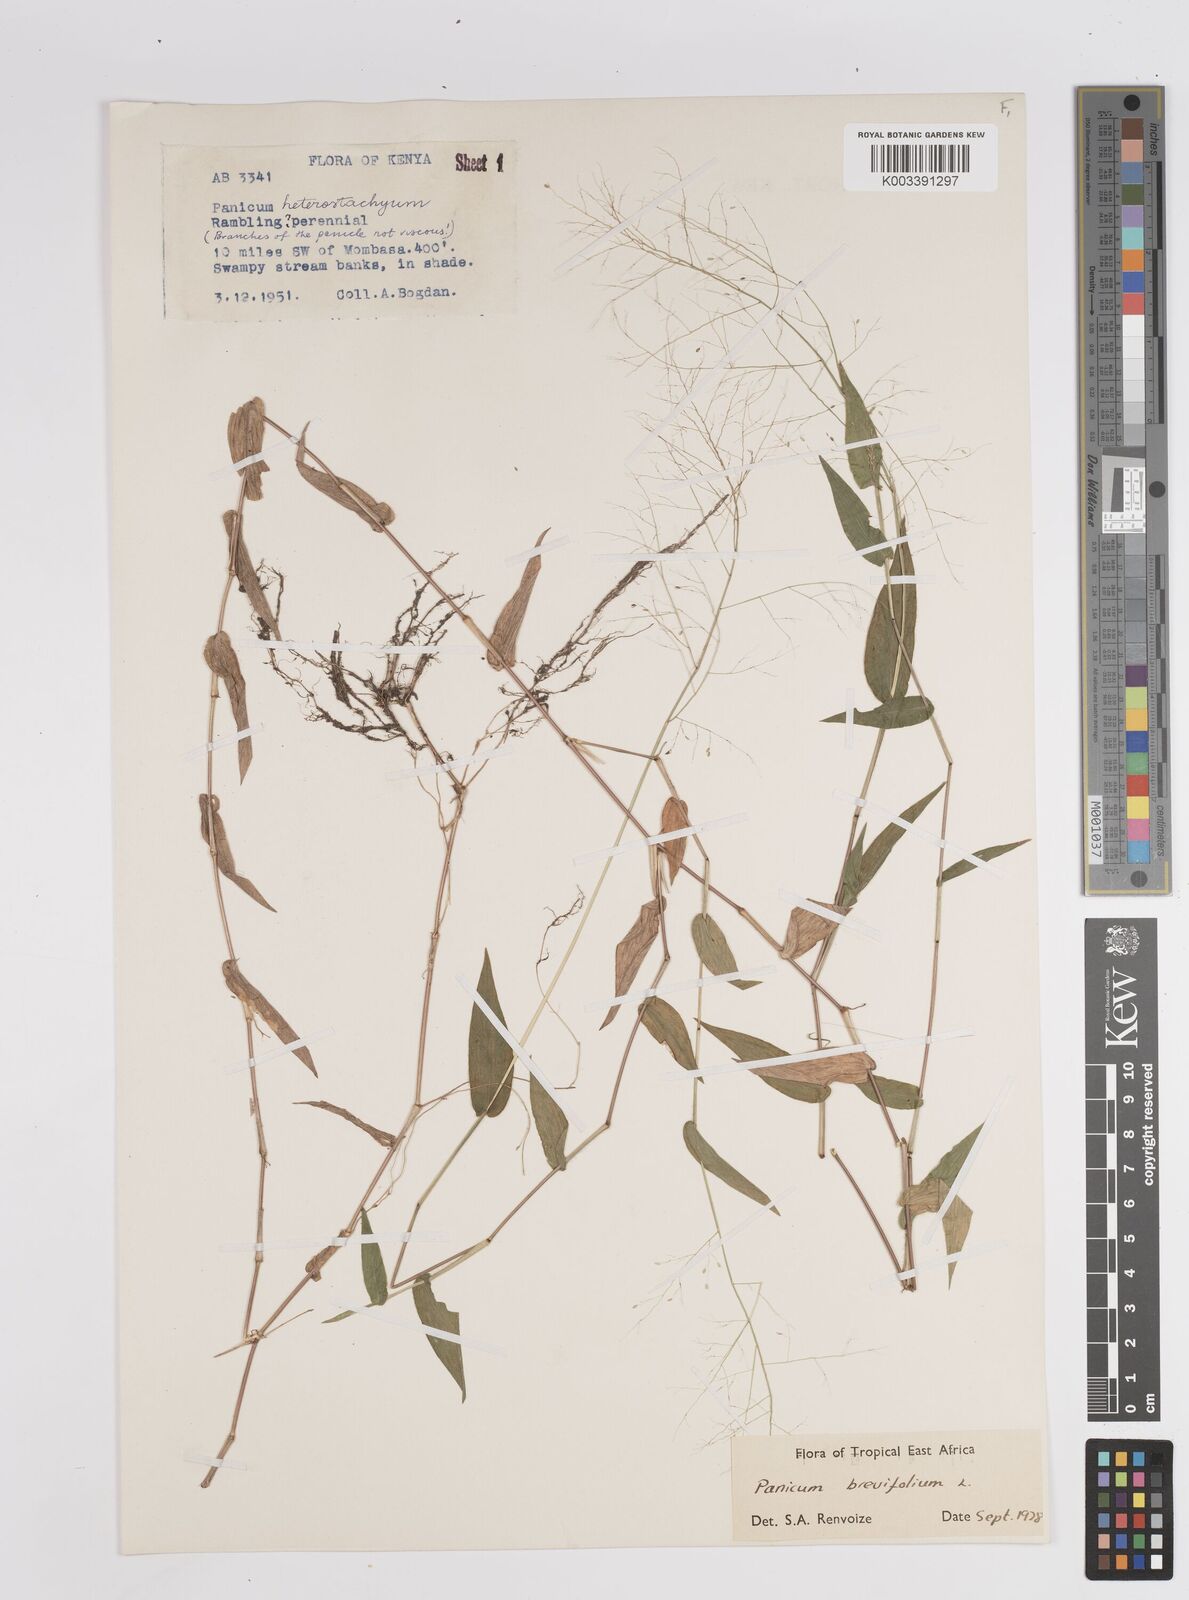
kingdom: Plantae
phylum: Tracheophyta
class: Liliopsida
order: Poales
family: Poaceae
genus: Panicum
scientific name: Panicum brevifolium
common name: Shortleaf panic grass
